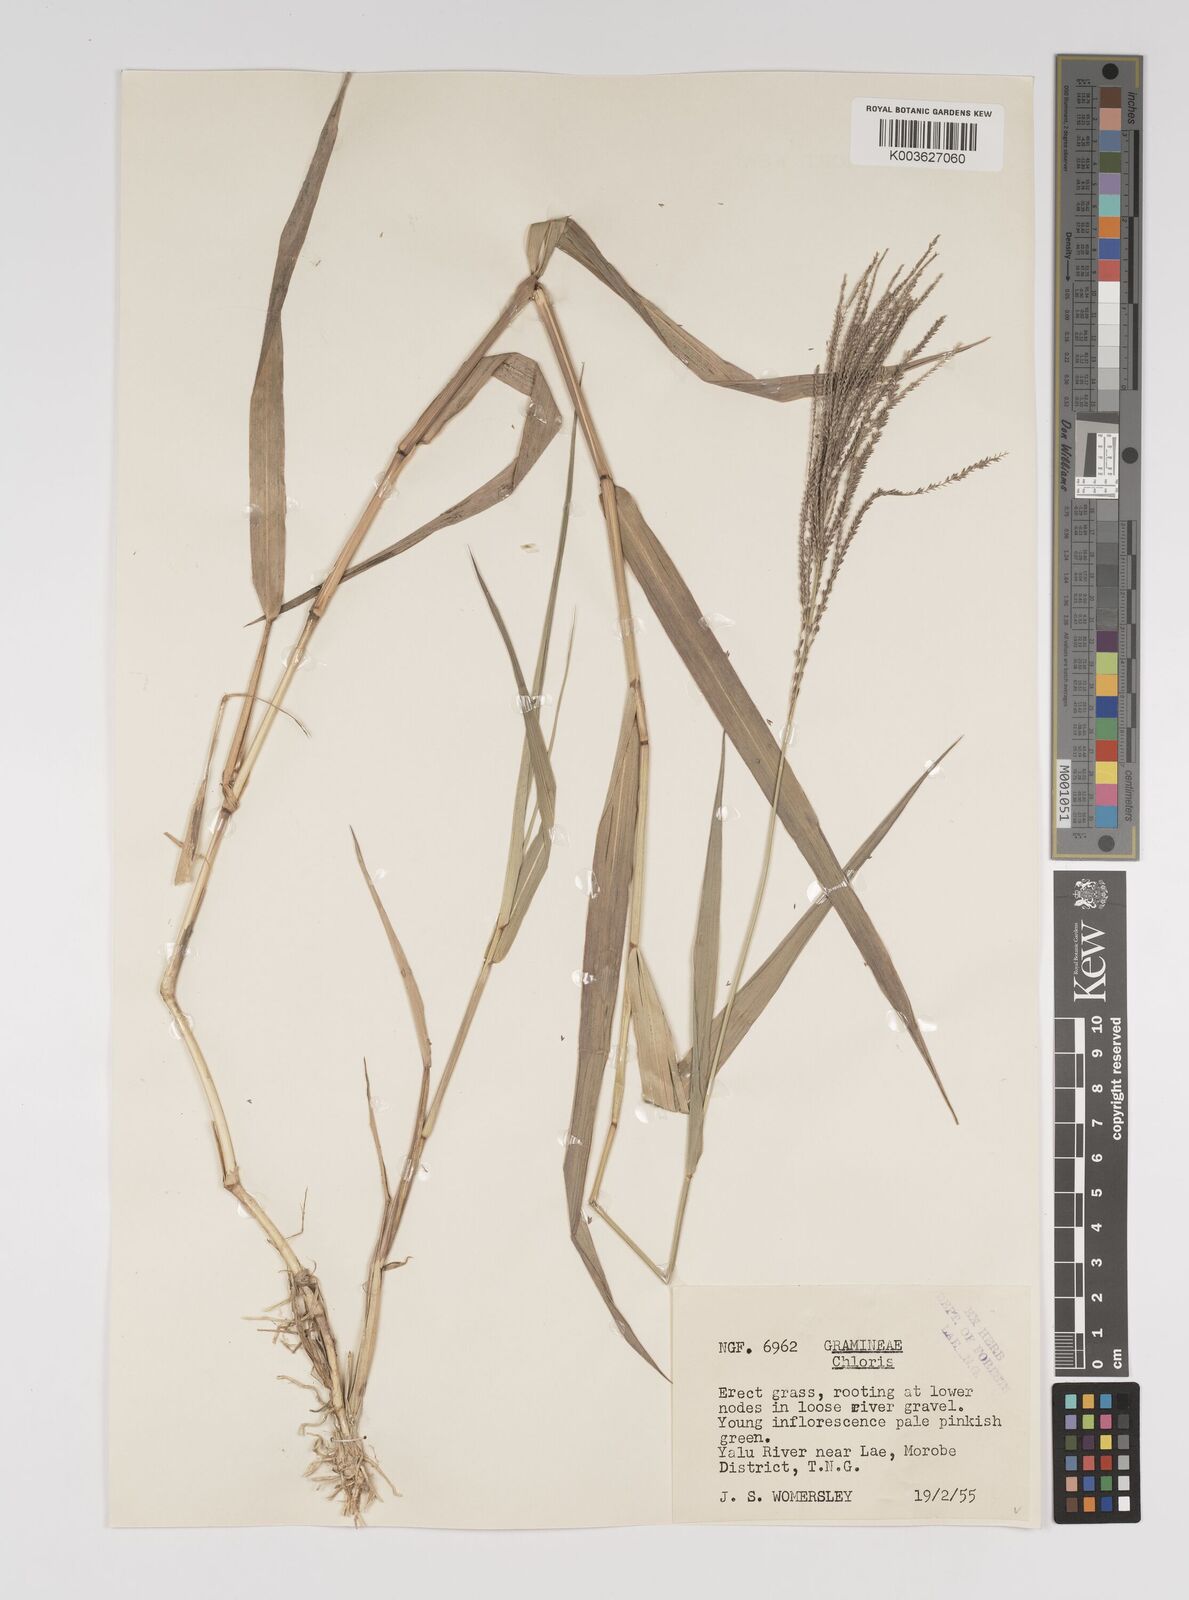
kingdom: Plantae
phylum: Tracheophyta
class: Liliopsida
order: Poales
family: Poaceae
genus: Leptochloa
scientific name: Leptochloa
